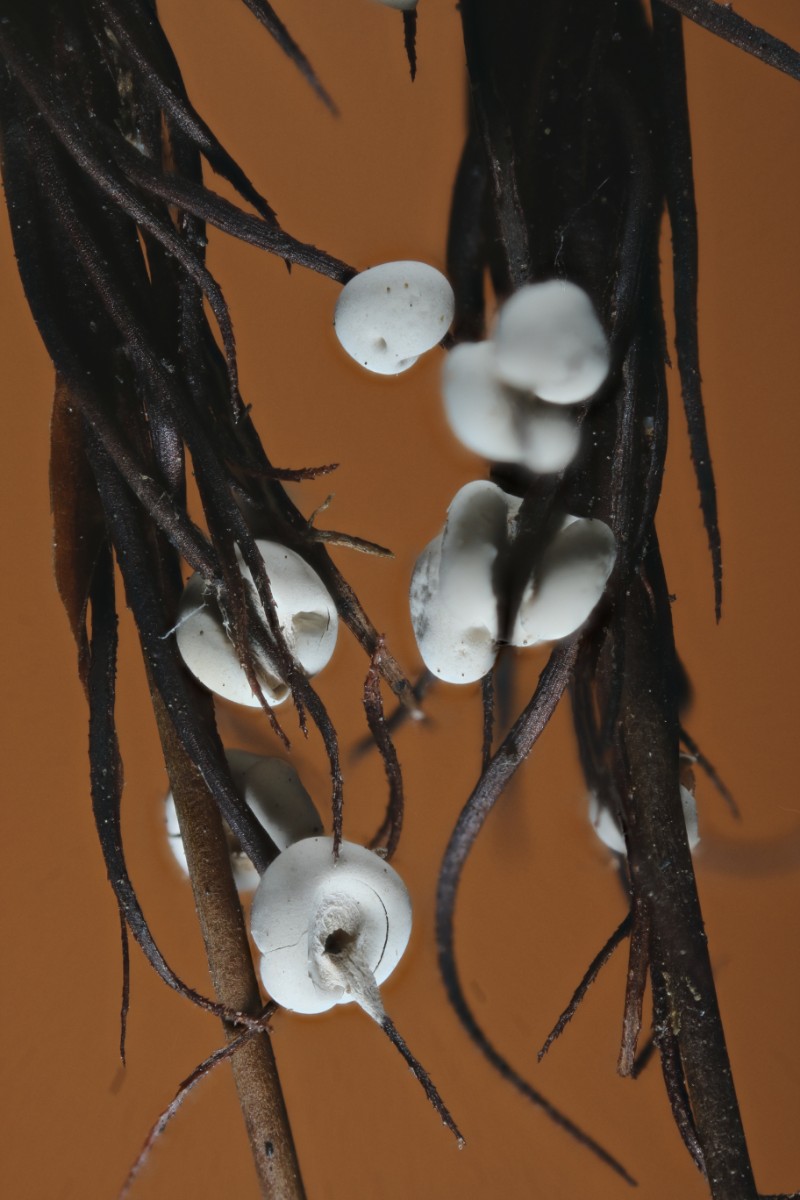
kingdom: Protozoa
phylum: Mycetozoa
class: Myxomycetes
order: Physarales
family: Didymiaceae
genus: Diderma
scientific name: Diderma deplanatum
